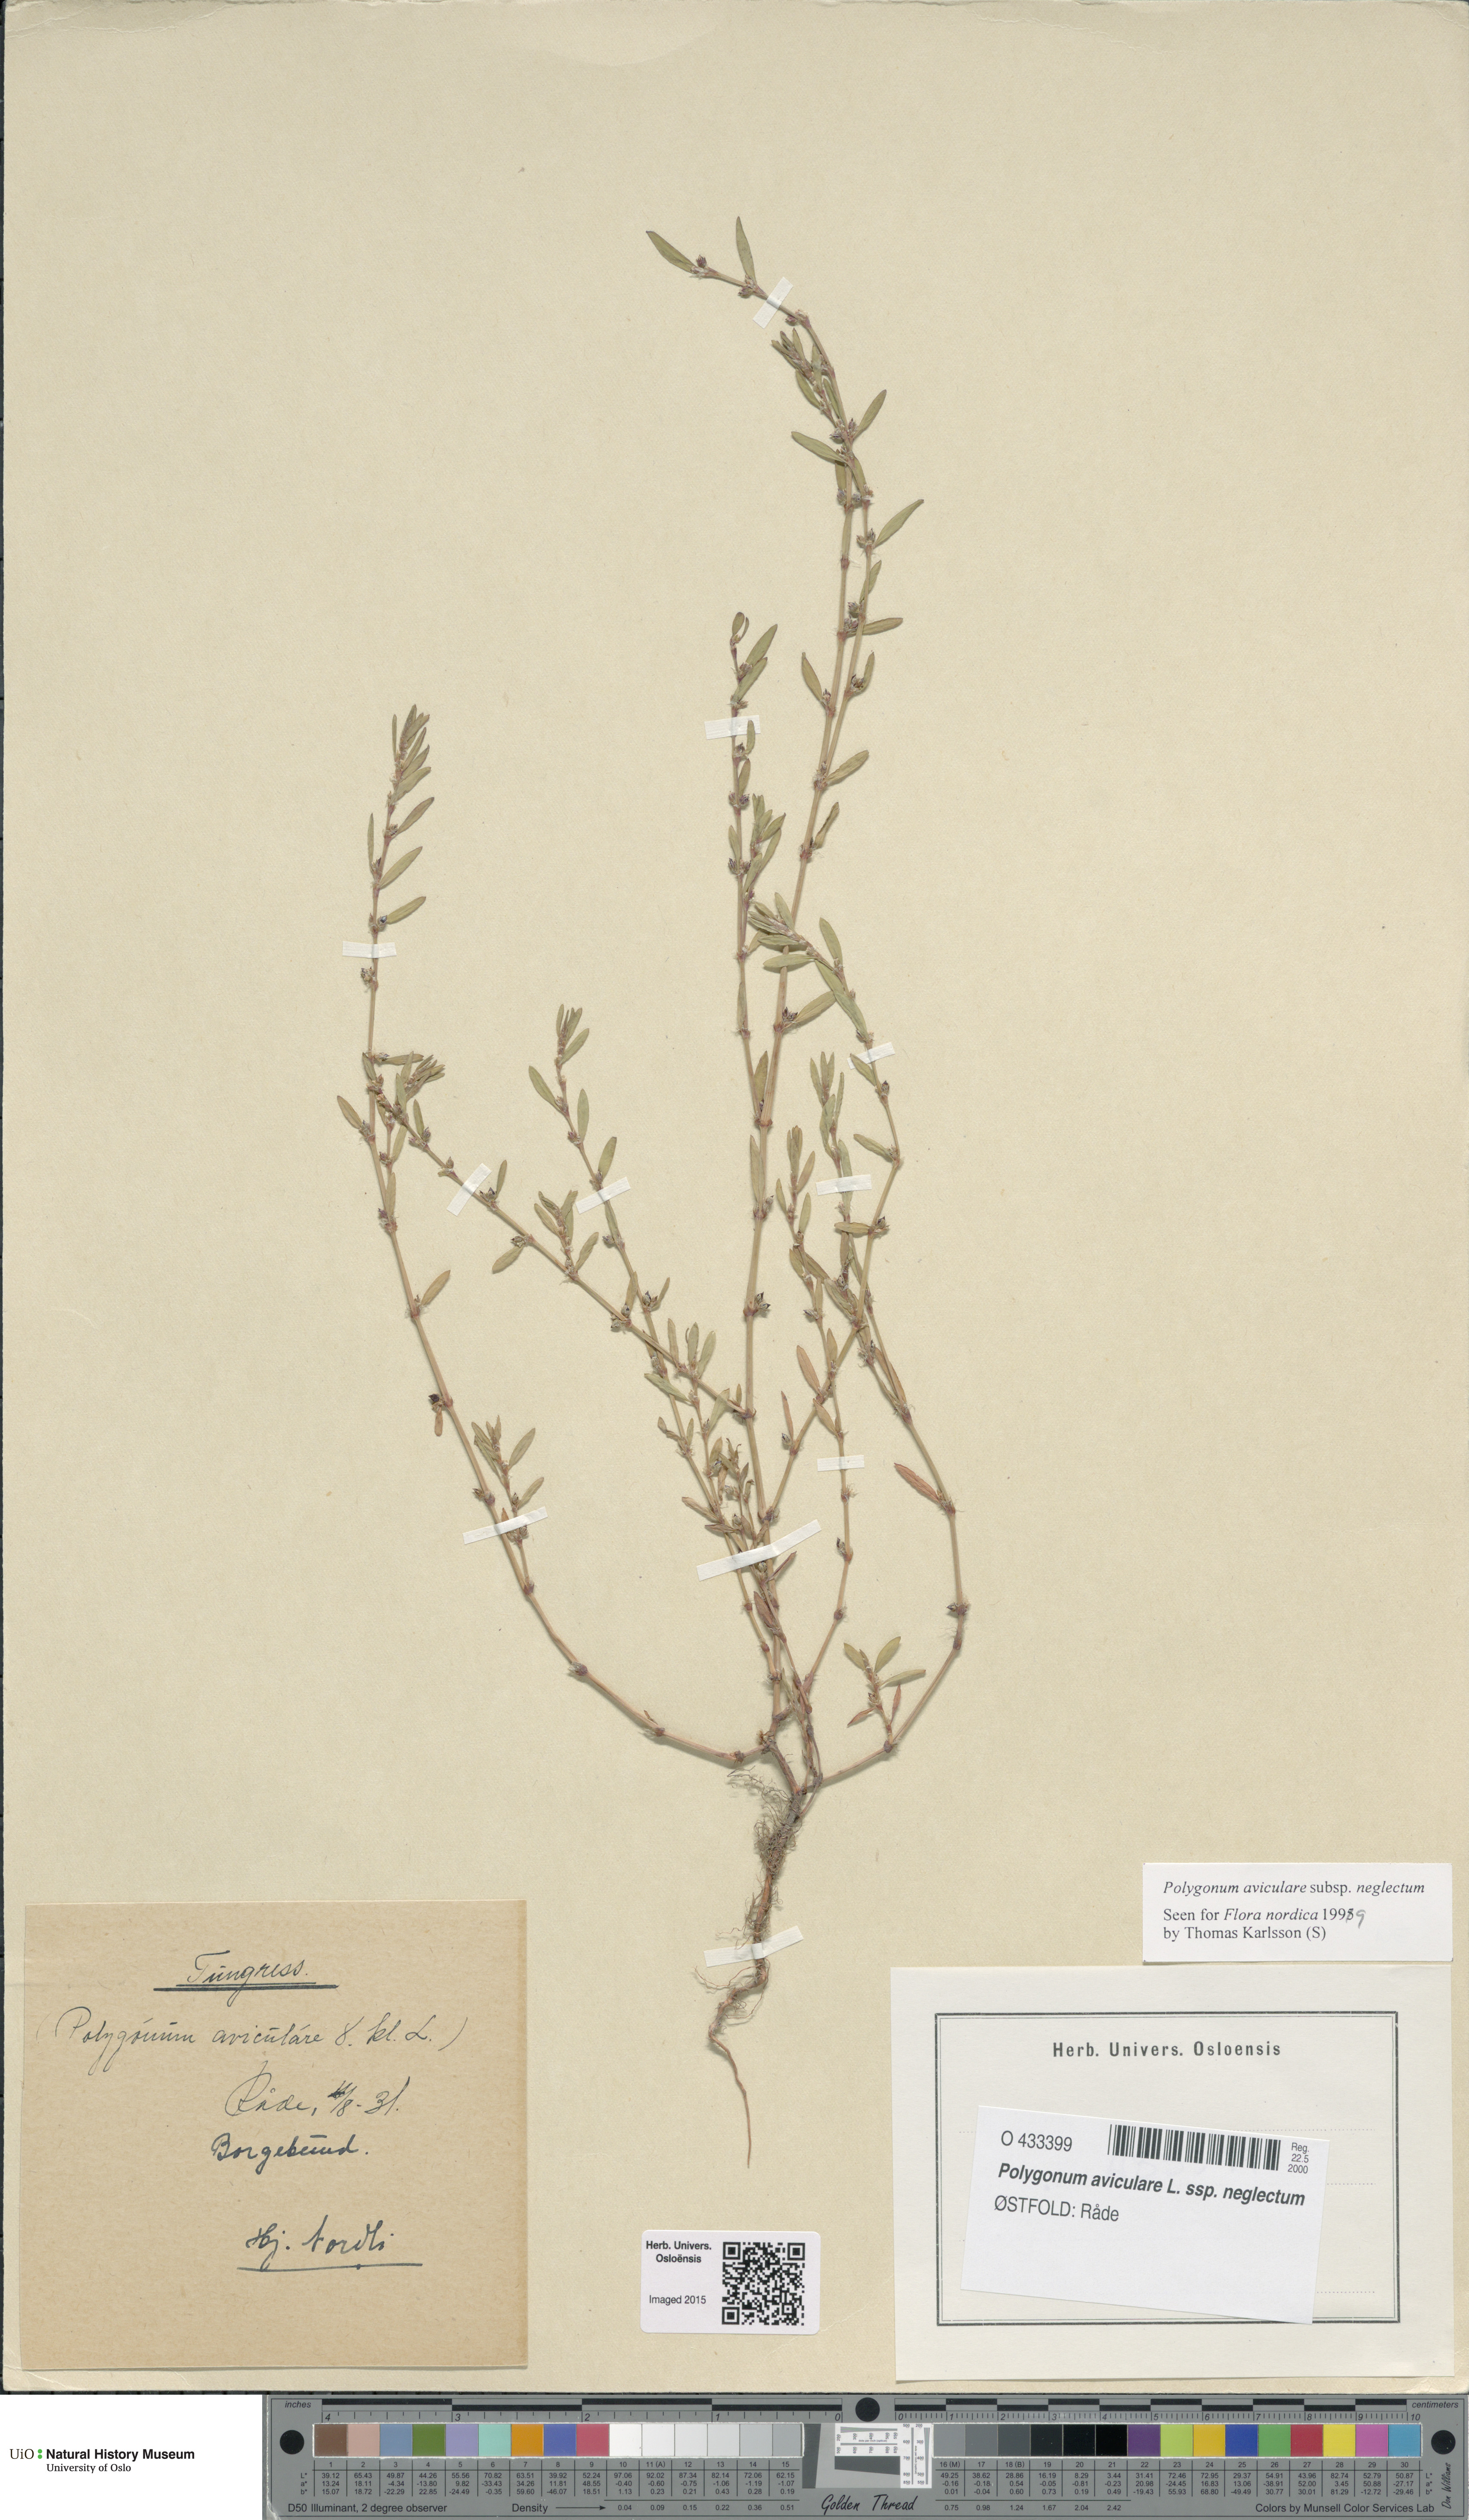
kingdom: Plantae
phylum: Tracheophyta
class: Magnoliopsida
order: Caryophyllales
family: Polygonaceae
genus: Polygonum
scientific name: Polygonum aviculare
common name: Prostrate knotweed
